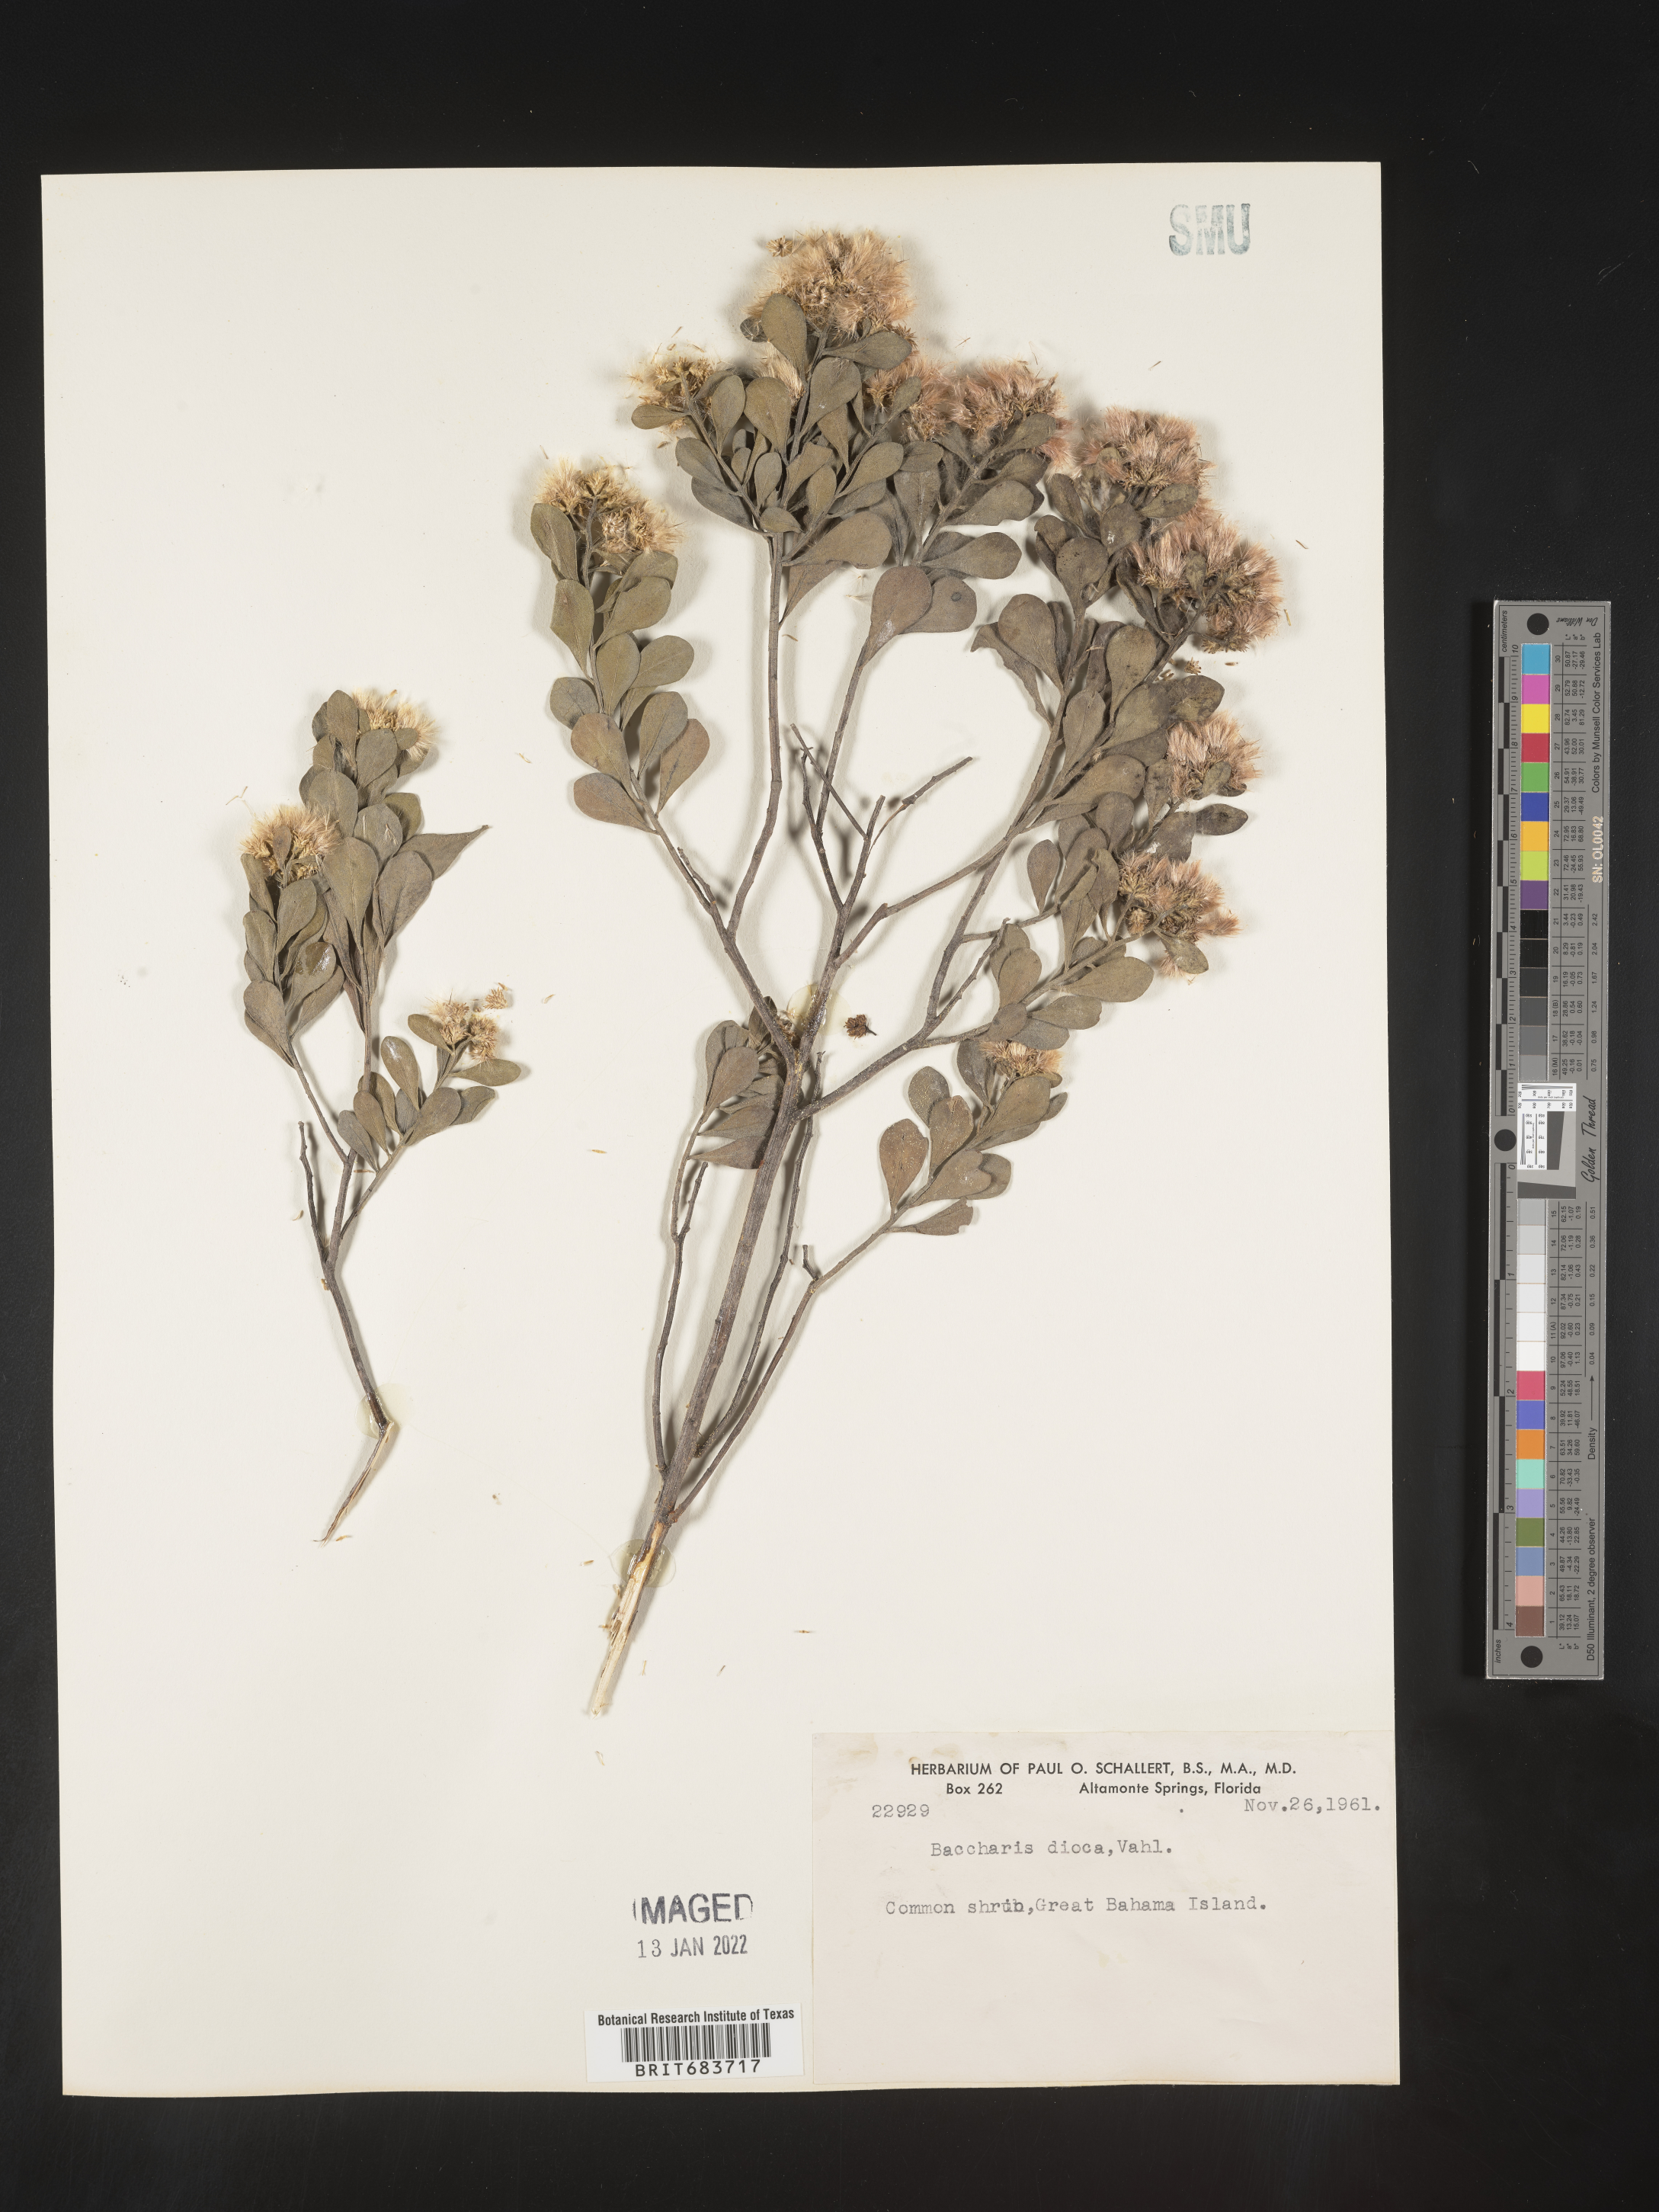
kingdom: Plantae
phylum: Tracheophyta
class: Magnoliopsida
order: Asterales
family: Asteraceae
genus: Baccharis
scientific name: Baccharis
